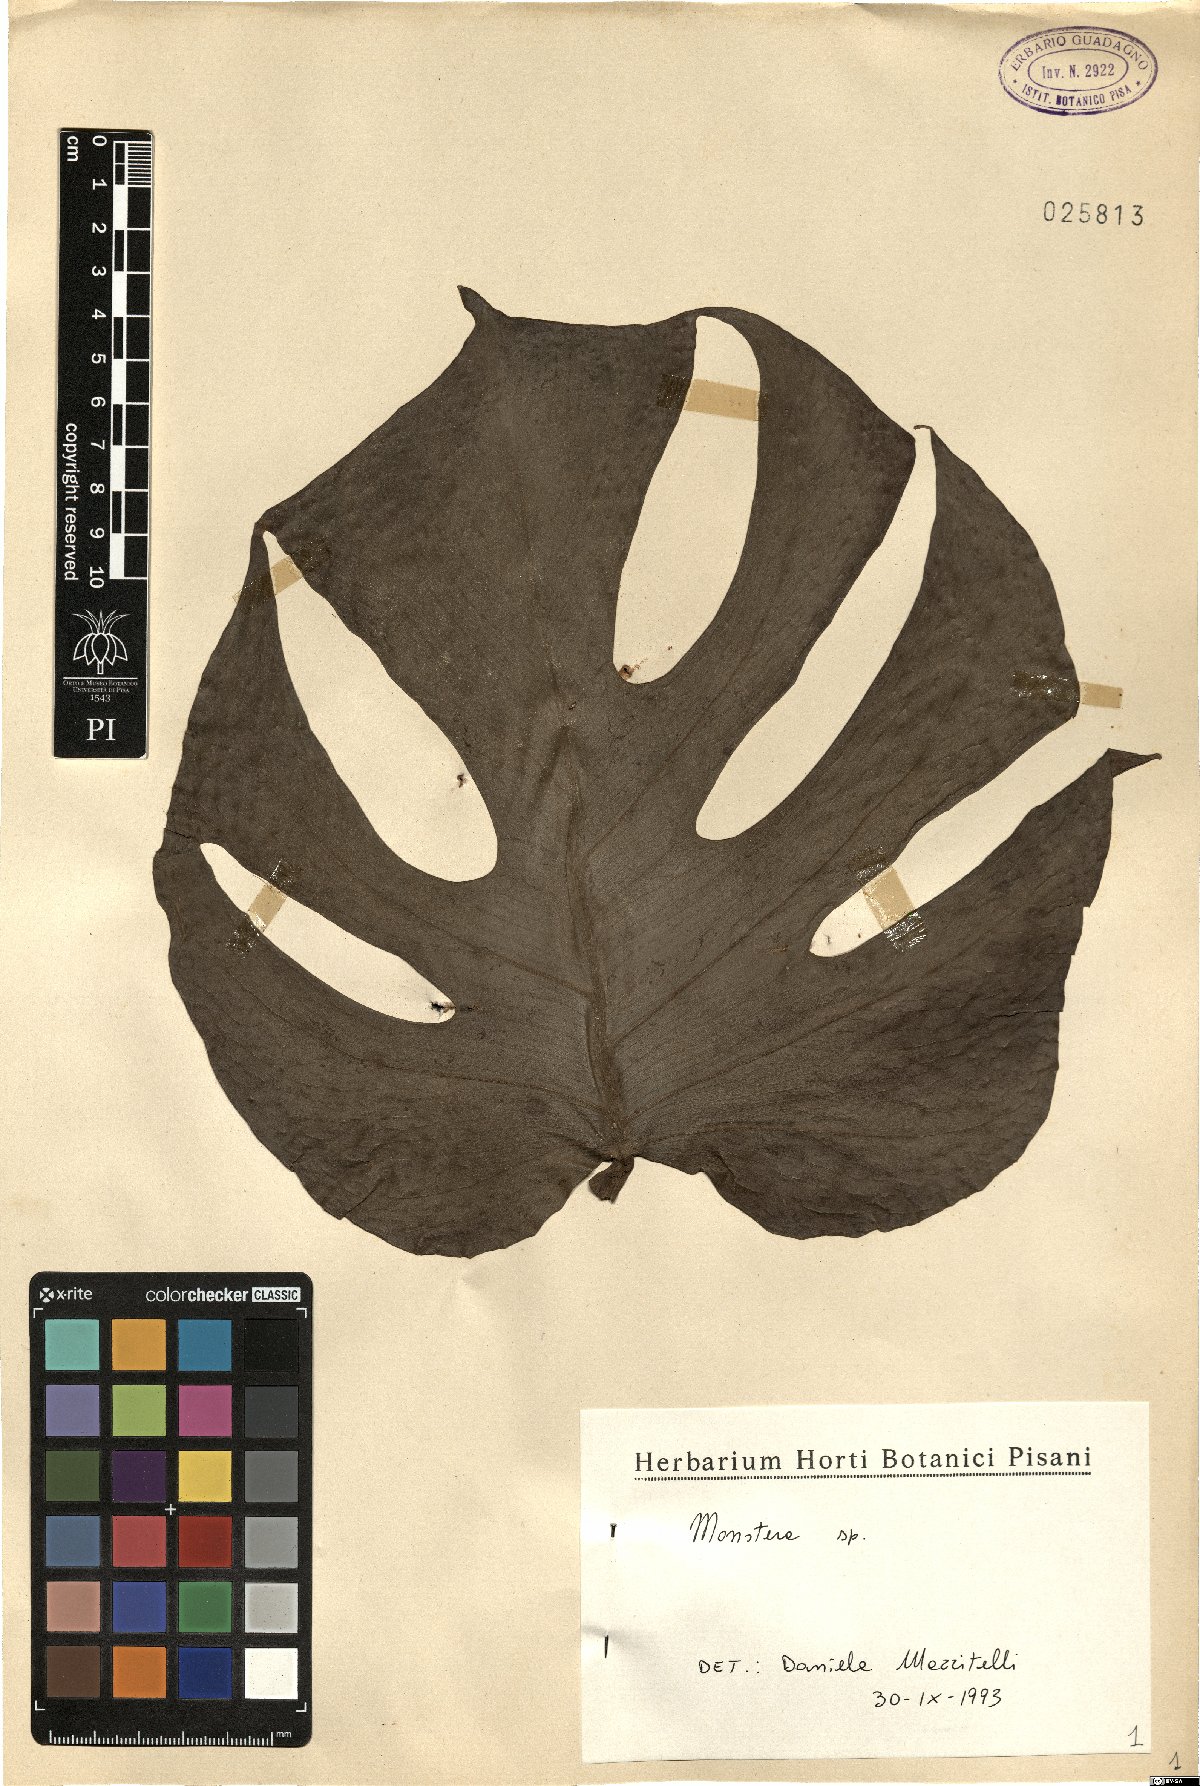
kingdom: Plantae
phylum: Tracheophyta
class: Liliopsida
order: Alismatales
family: Araceae
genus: Monstera
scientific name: Monstera
